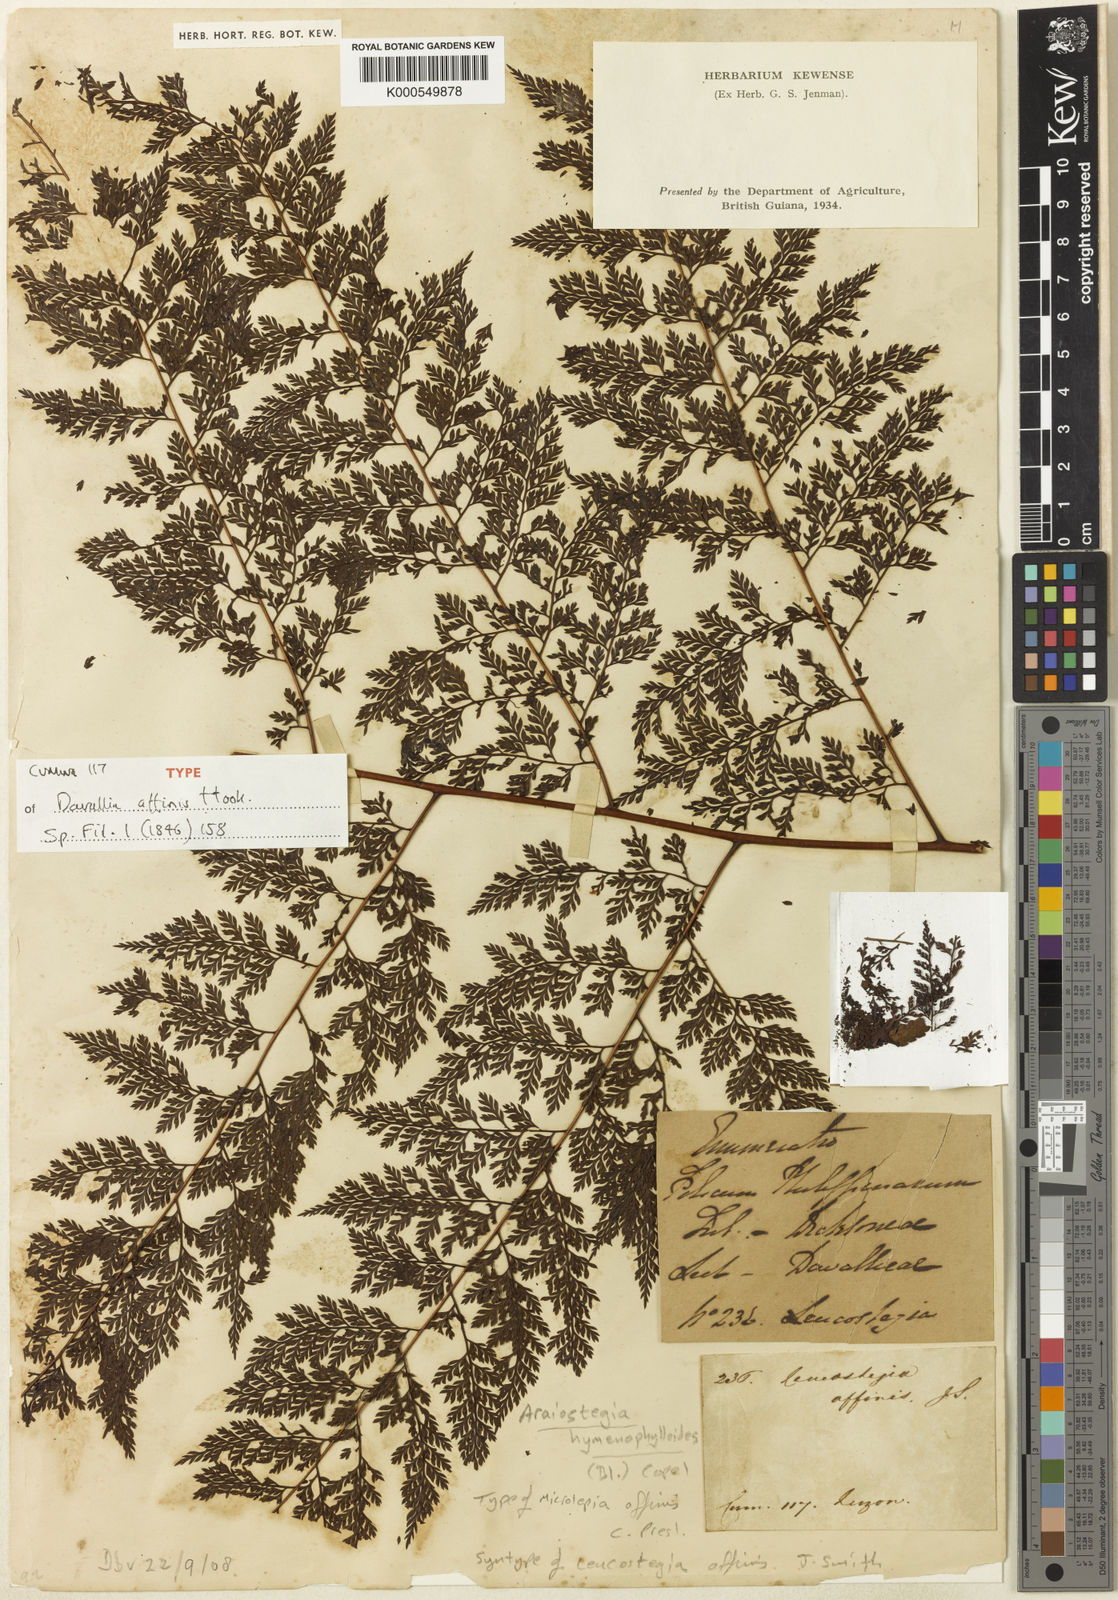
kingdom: Plantae
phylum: Tracheophyta
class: Polypodiopsida
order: Polypodiales
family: Davalliaceae
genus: Davallodes
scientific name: Davallodes hymenophylloides
